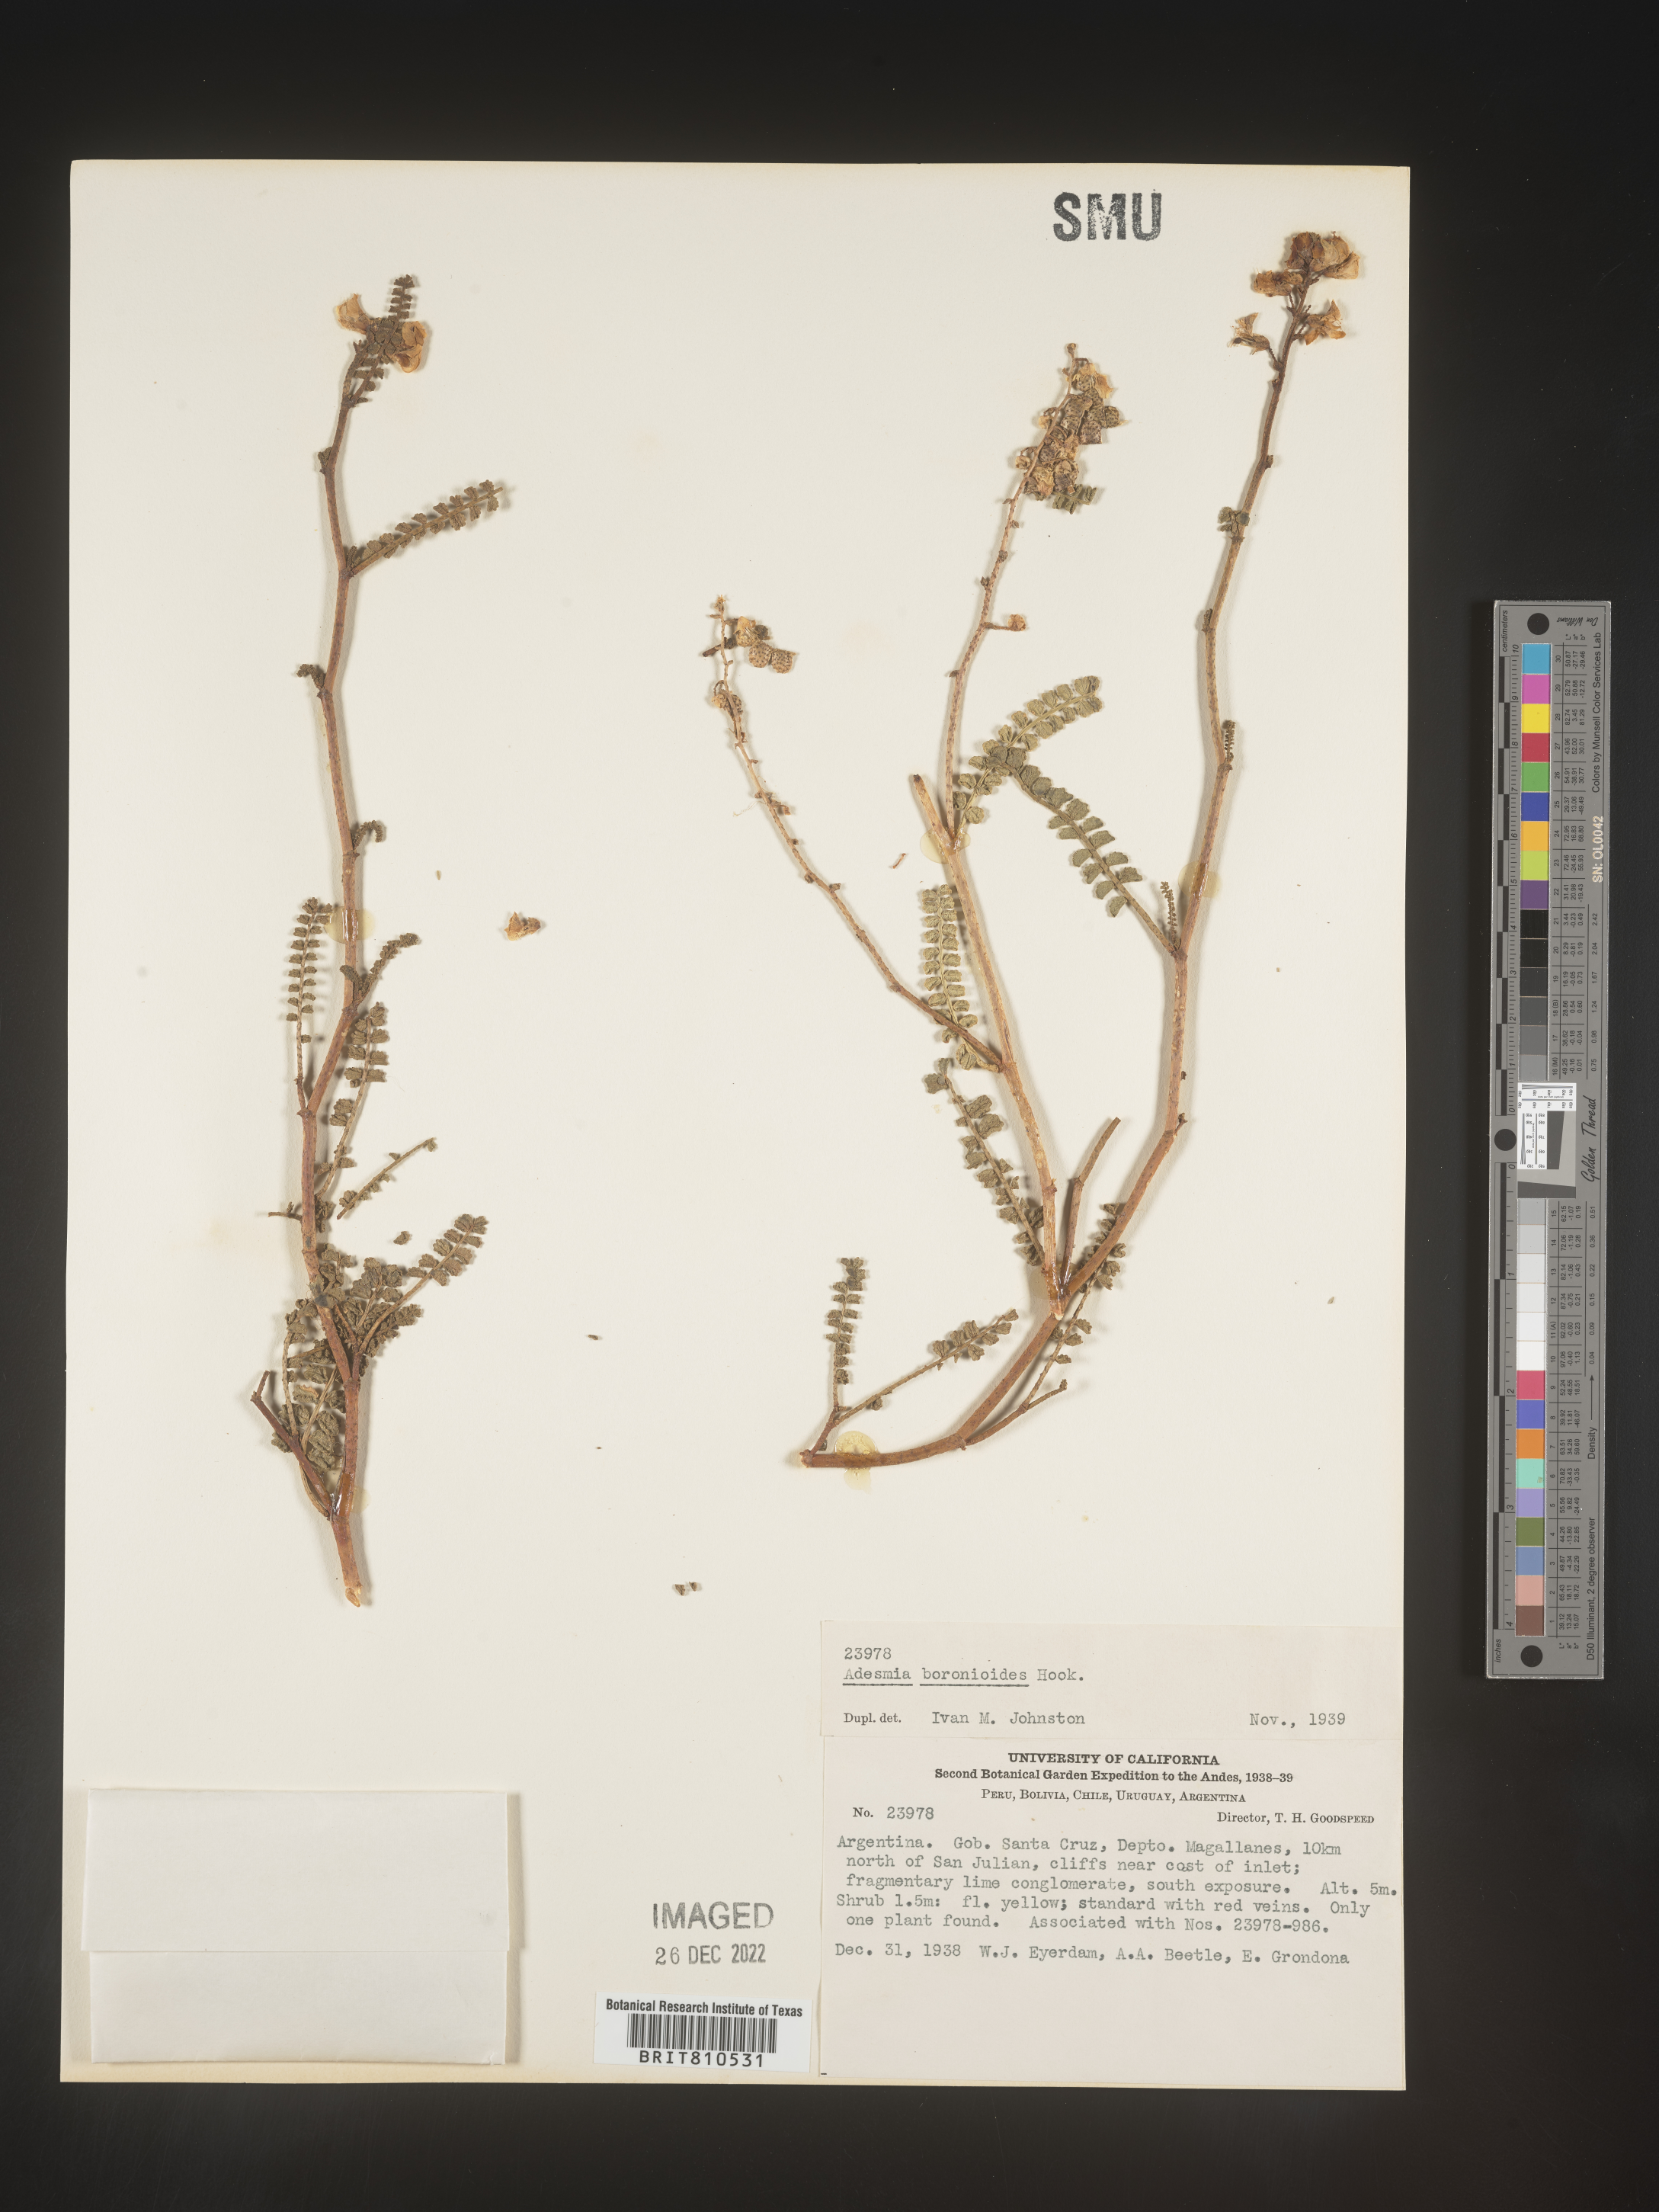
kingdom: Plantae
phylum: Tracheophyta
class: Magnoliopsida
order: Fabales
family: Fabaceae
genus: Adesmia
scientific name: Adesmia
